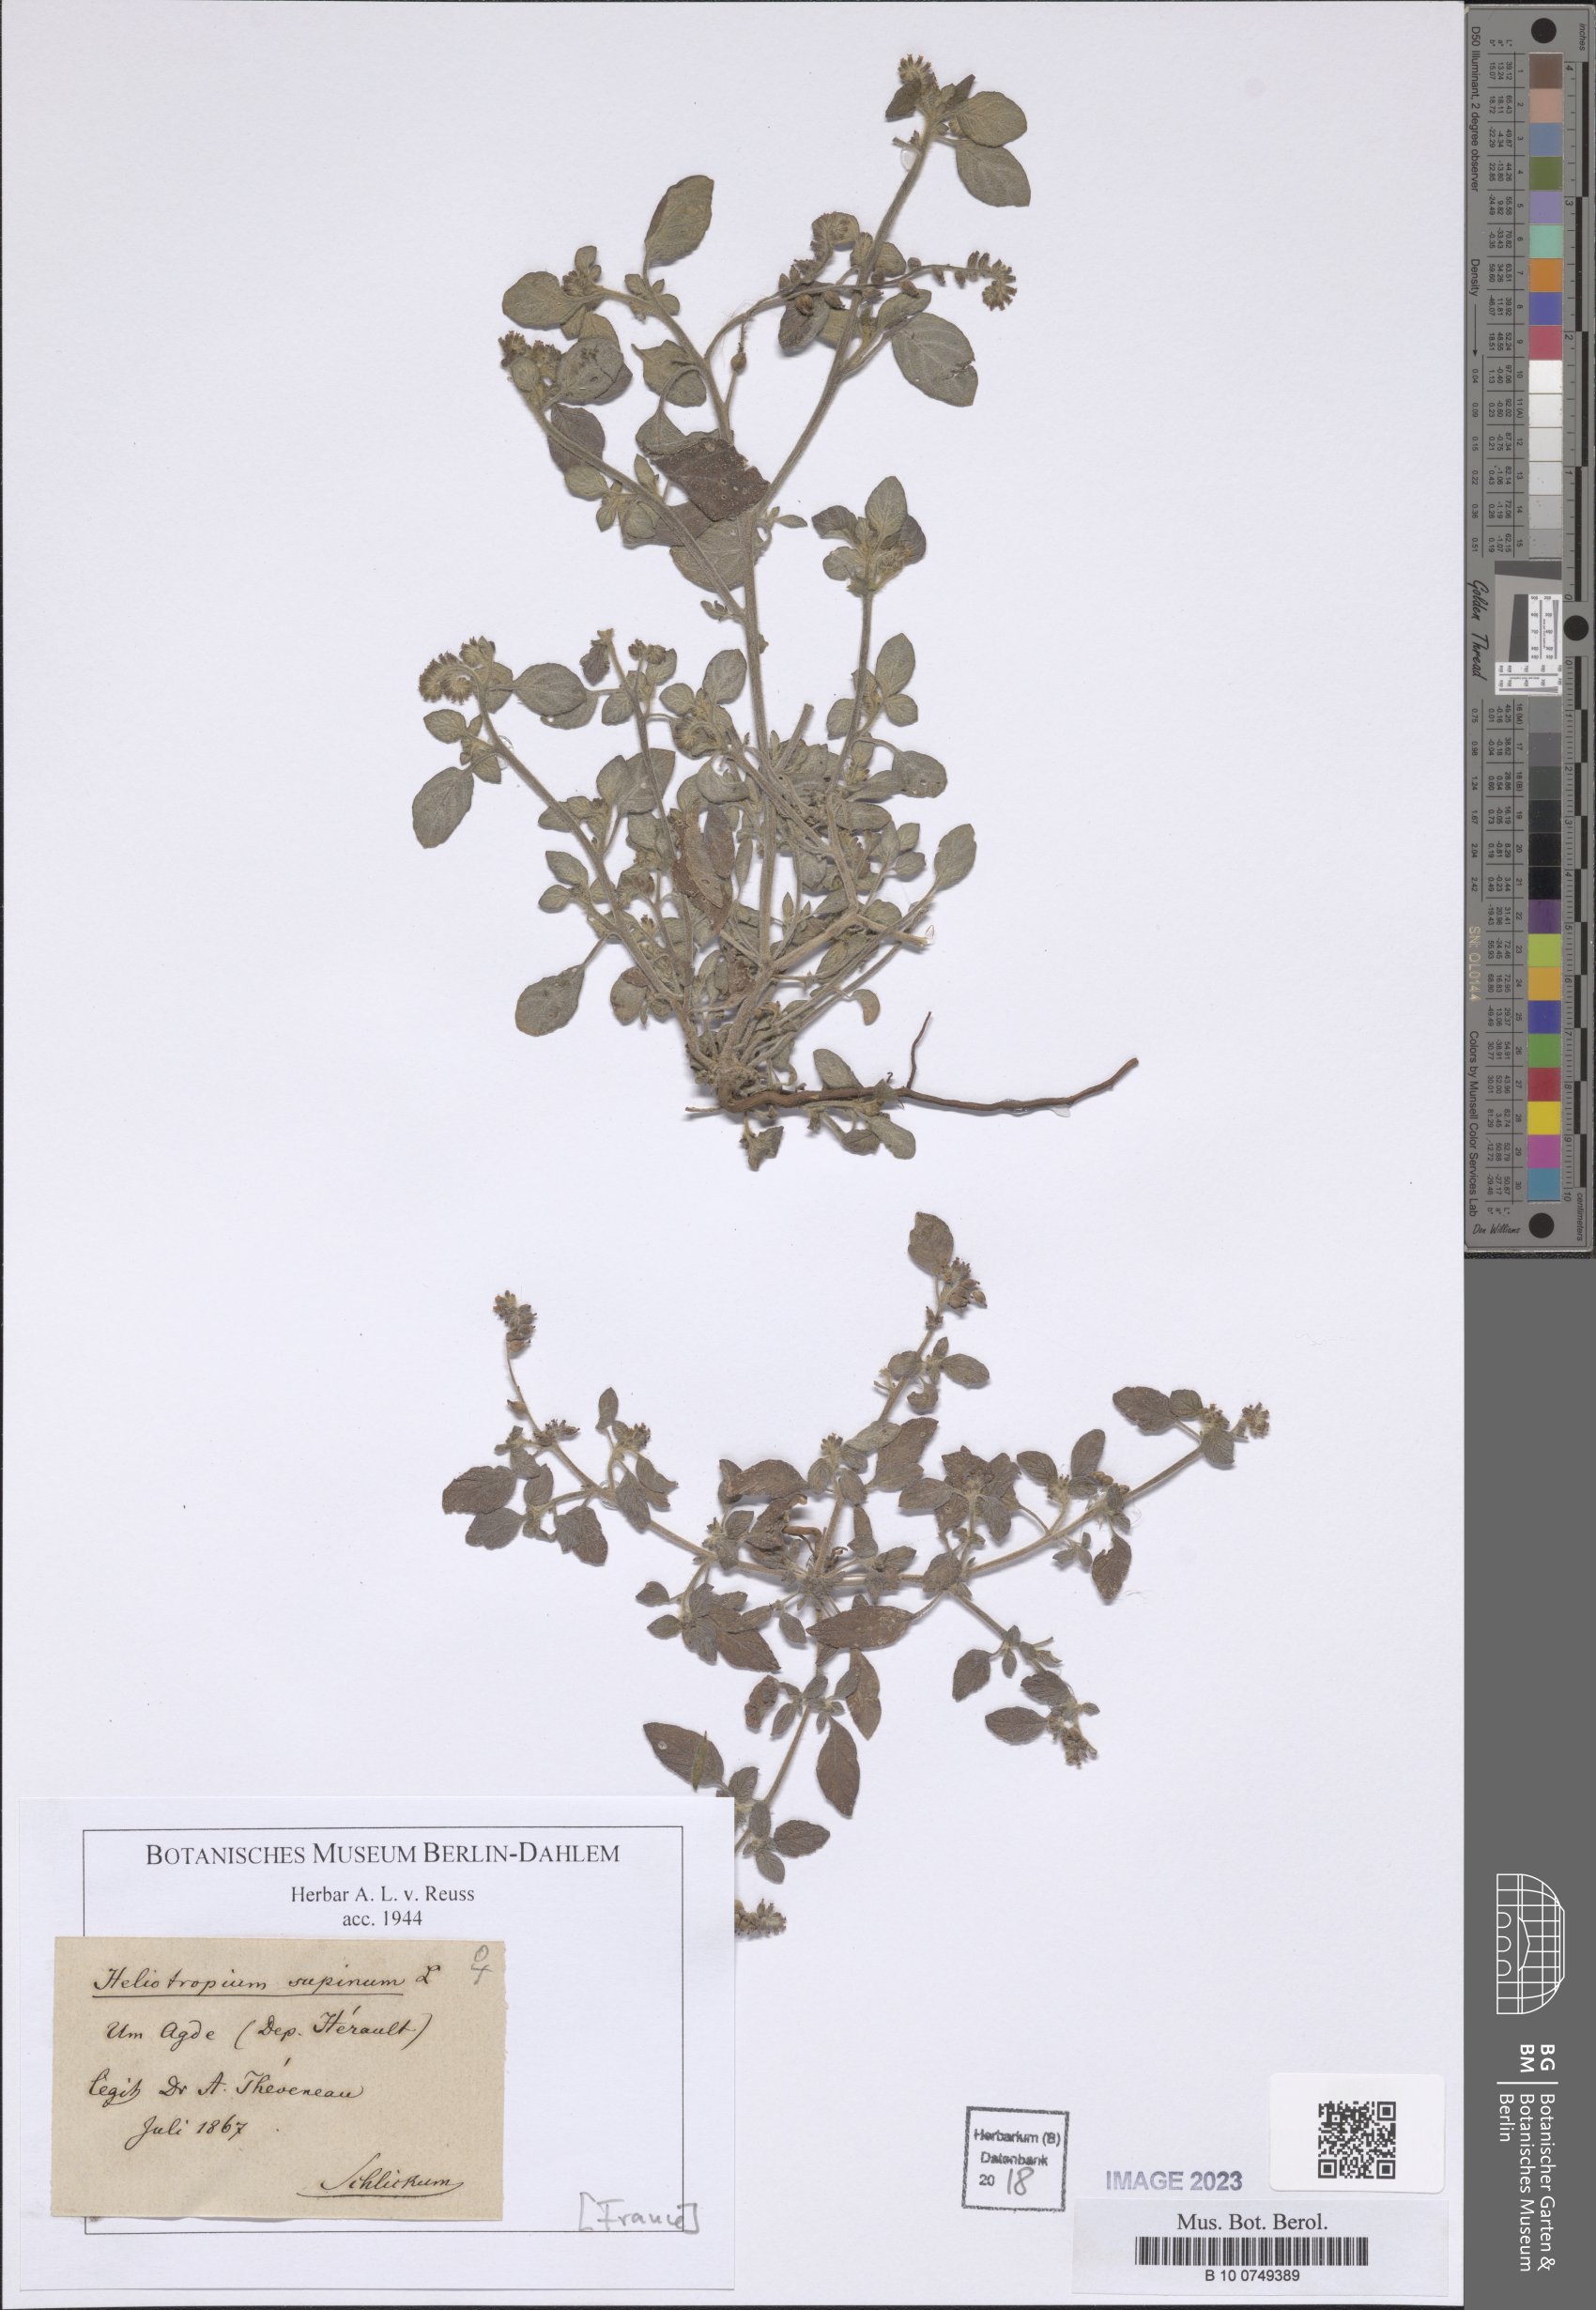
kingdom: Plantae
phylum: Tracheophyta
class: Magnoliopsida
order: Boraginales
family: Heliotropiaceae
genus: Heliotropium
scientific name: Heliotropium supinum
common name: Dwarf heliotrope
